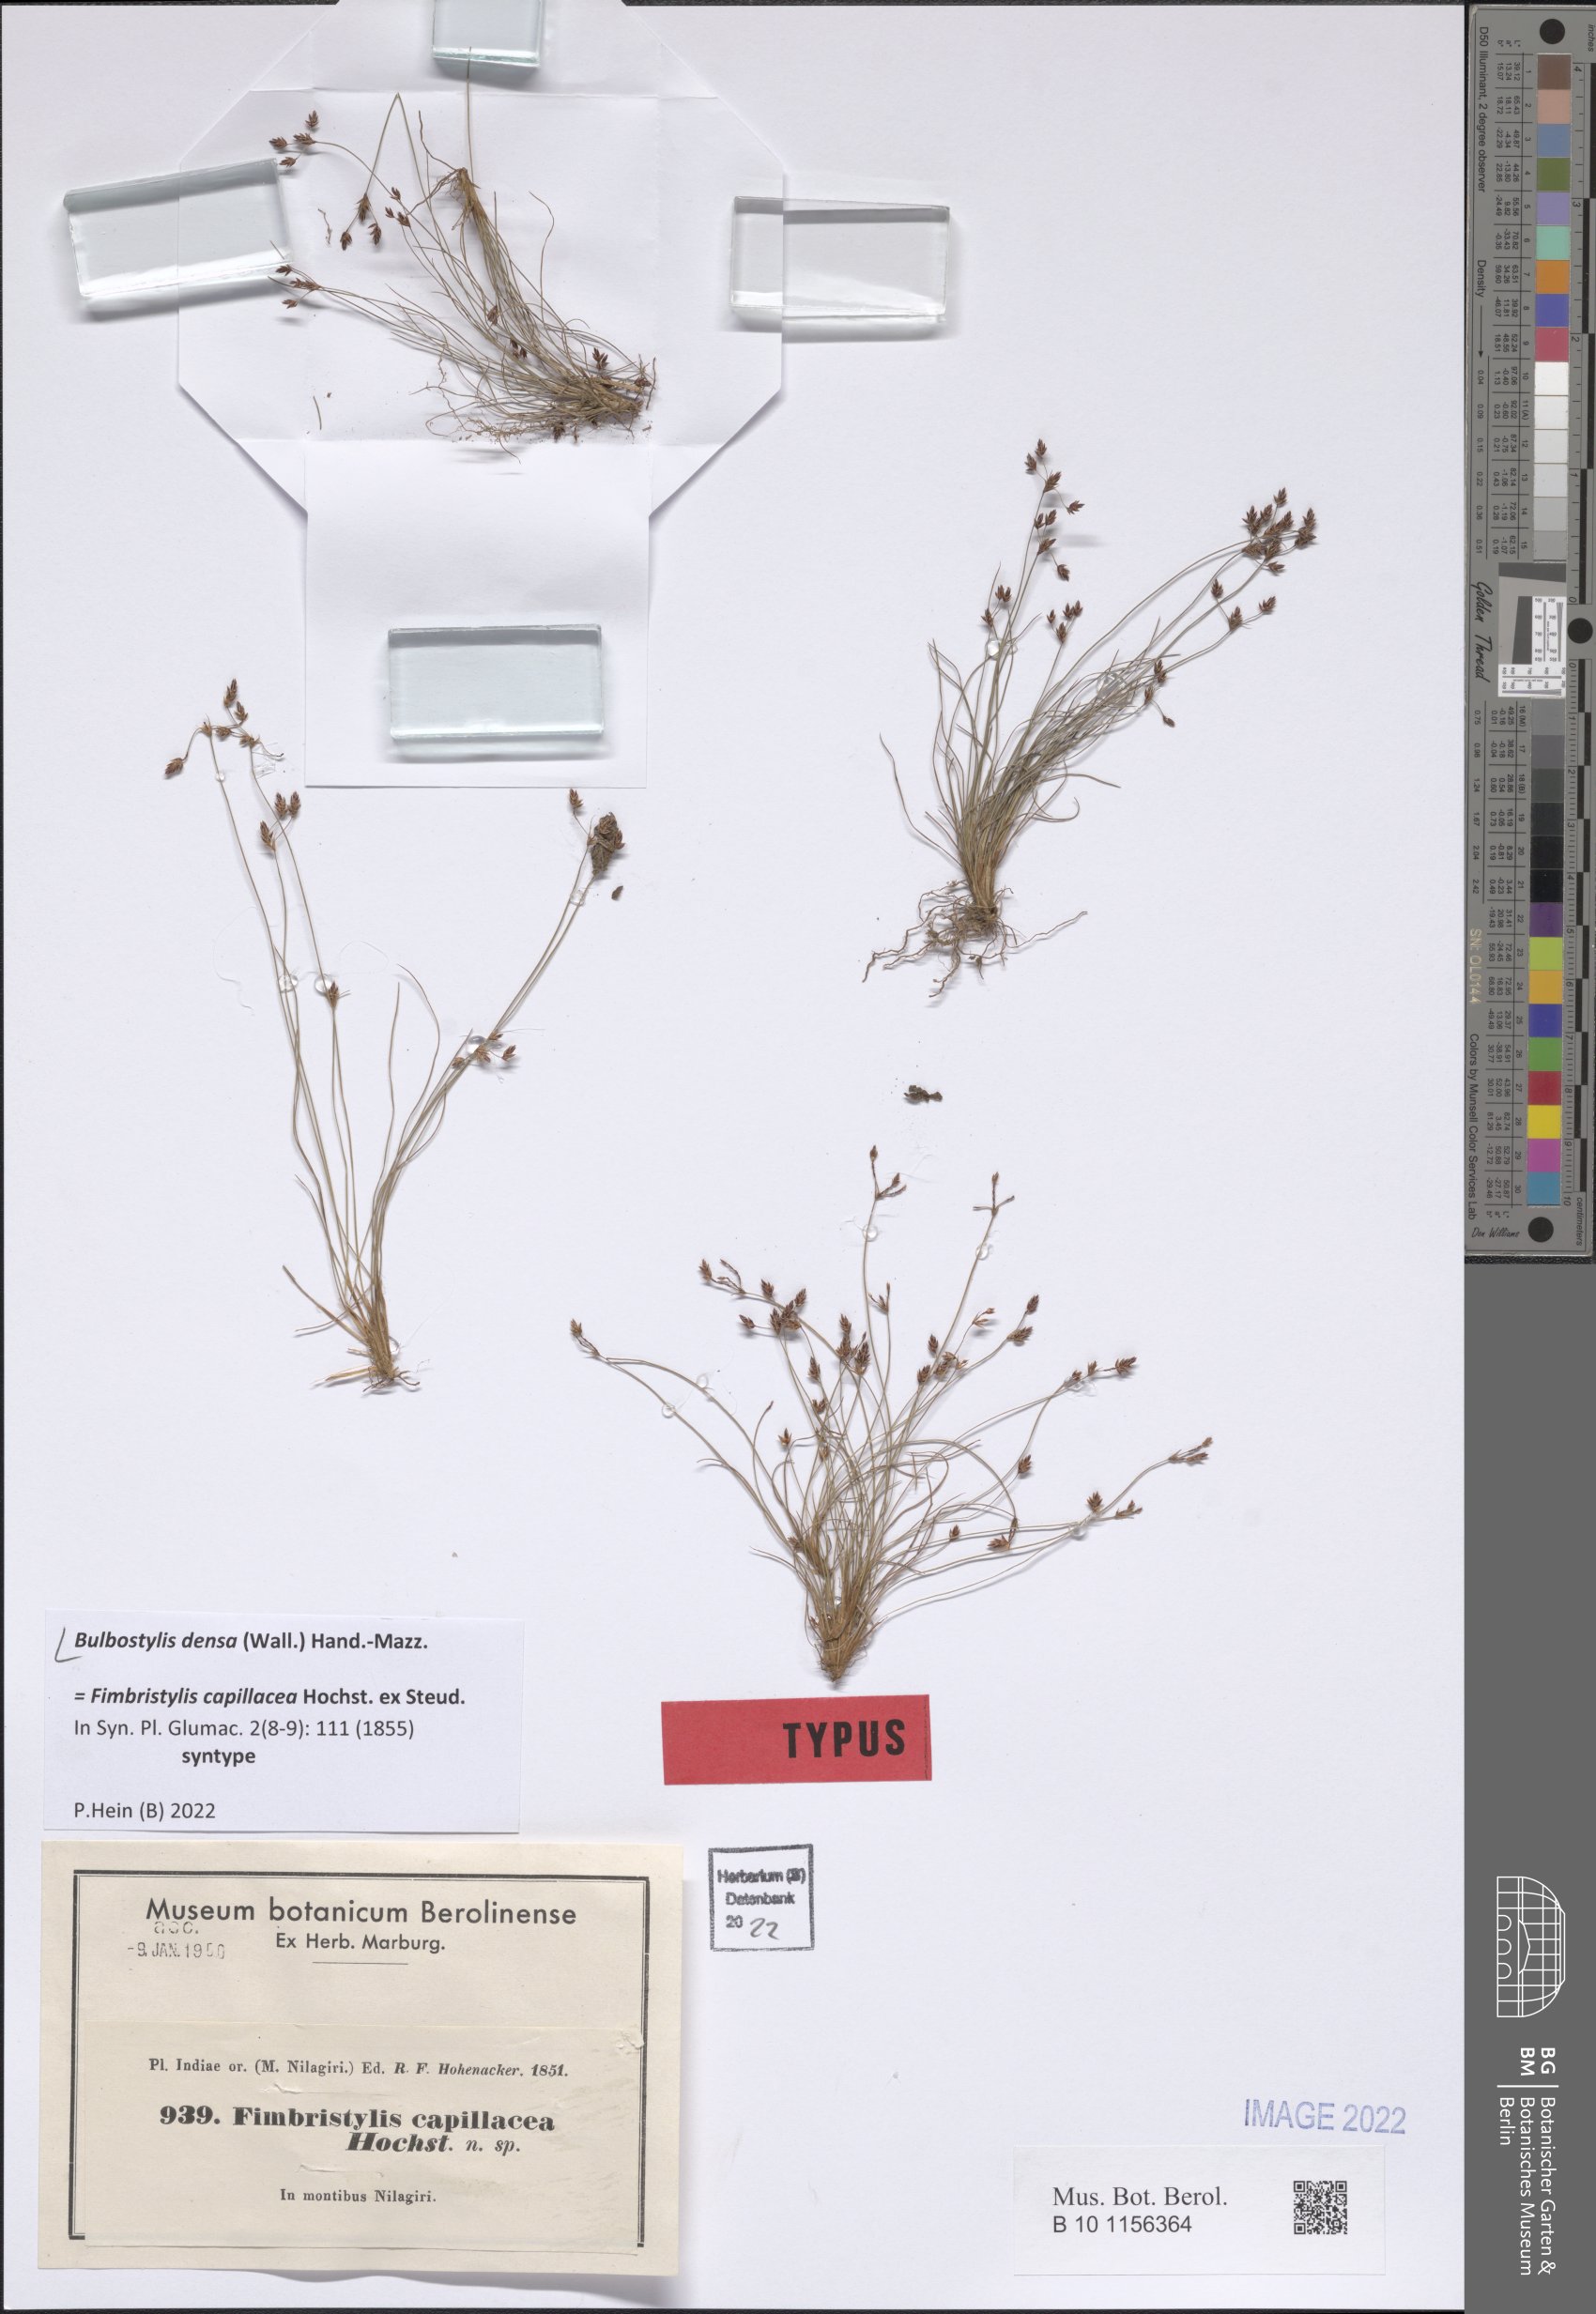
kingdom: Plantae
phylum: Tracheophyta
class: Liliopsida
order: Poales
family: Cyperaceae
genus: Bulbostylis
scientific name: Bulbostylis densa
